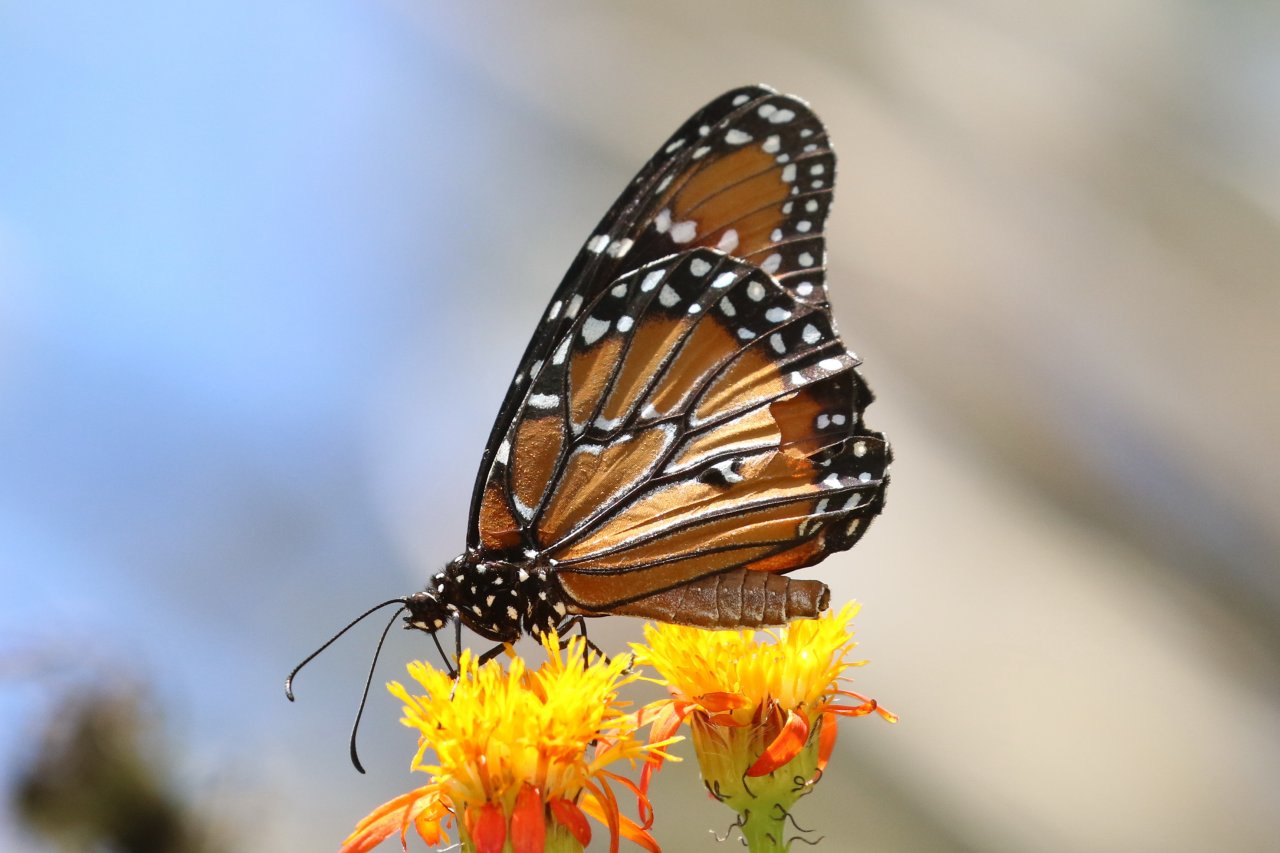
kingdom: Animalia
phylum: Arthropoda
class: Insecta
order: Lepidoptera
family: Nymphalidae
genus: Danaus
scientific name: Danaus gilippus
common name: Queen
